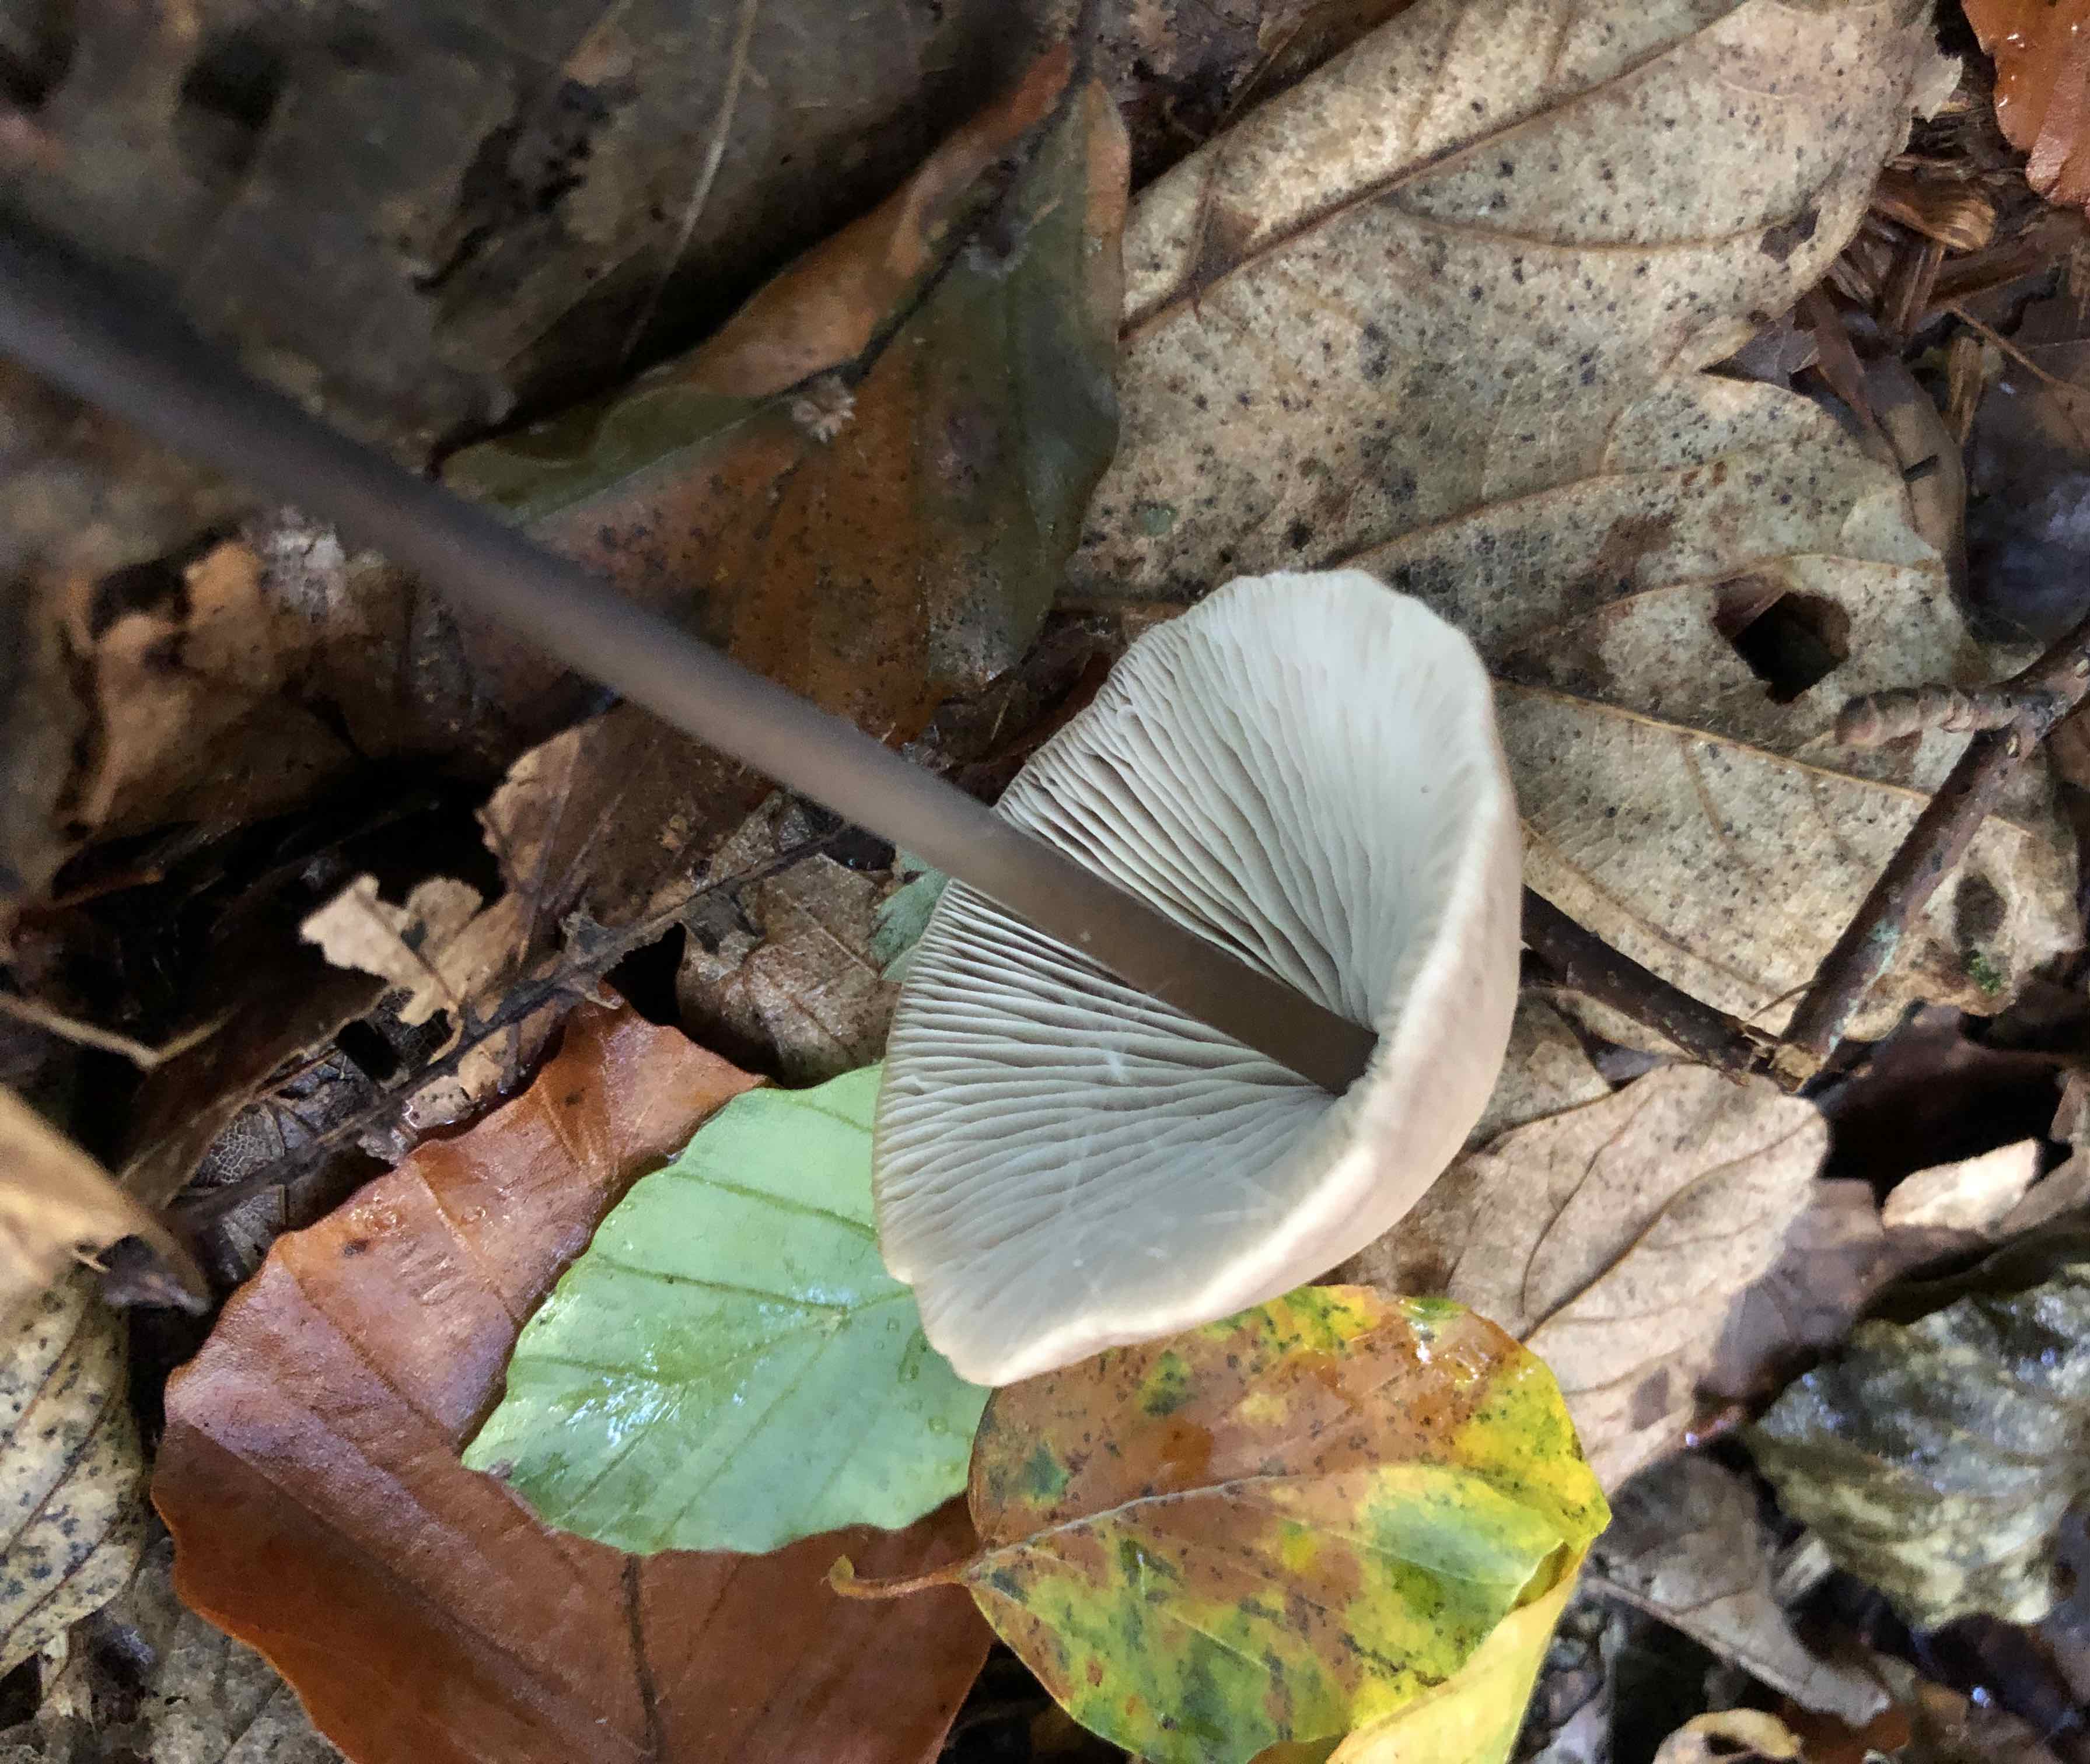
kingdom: Fungi
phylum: Basidiomycota
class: Agaricomycetes
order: Agaricales
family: Omphalotaceae
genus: Mycetinis
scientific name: Mycetinis alliaceus
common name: stor løghat
